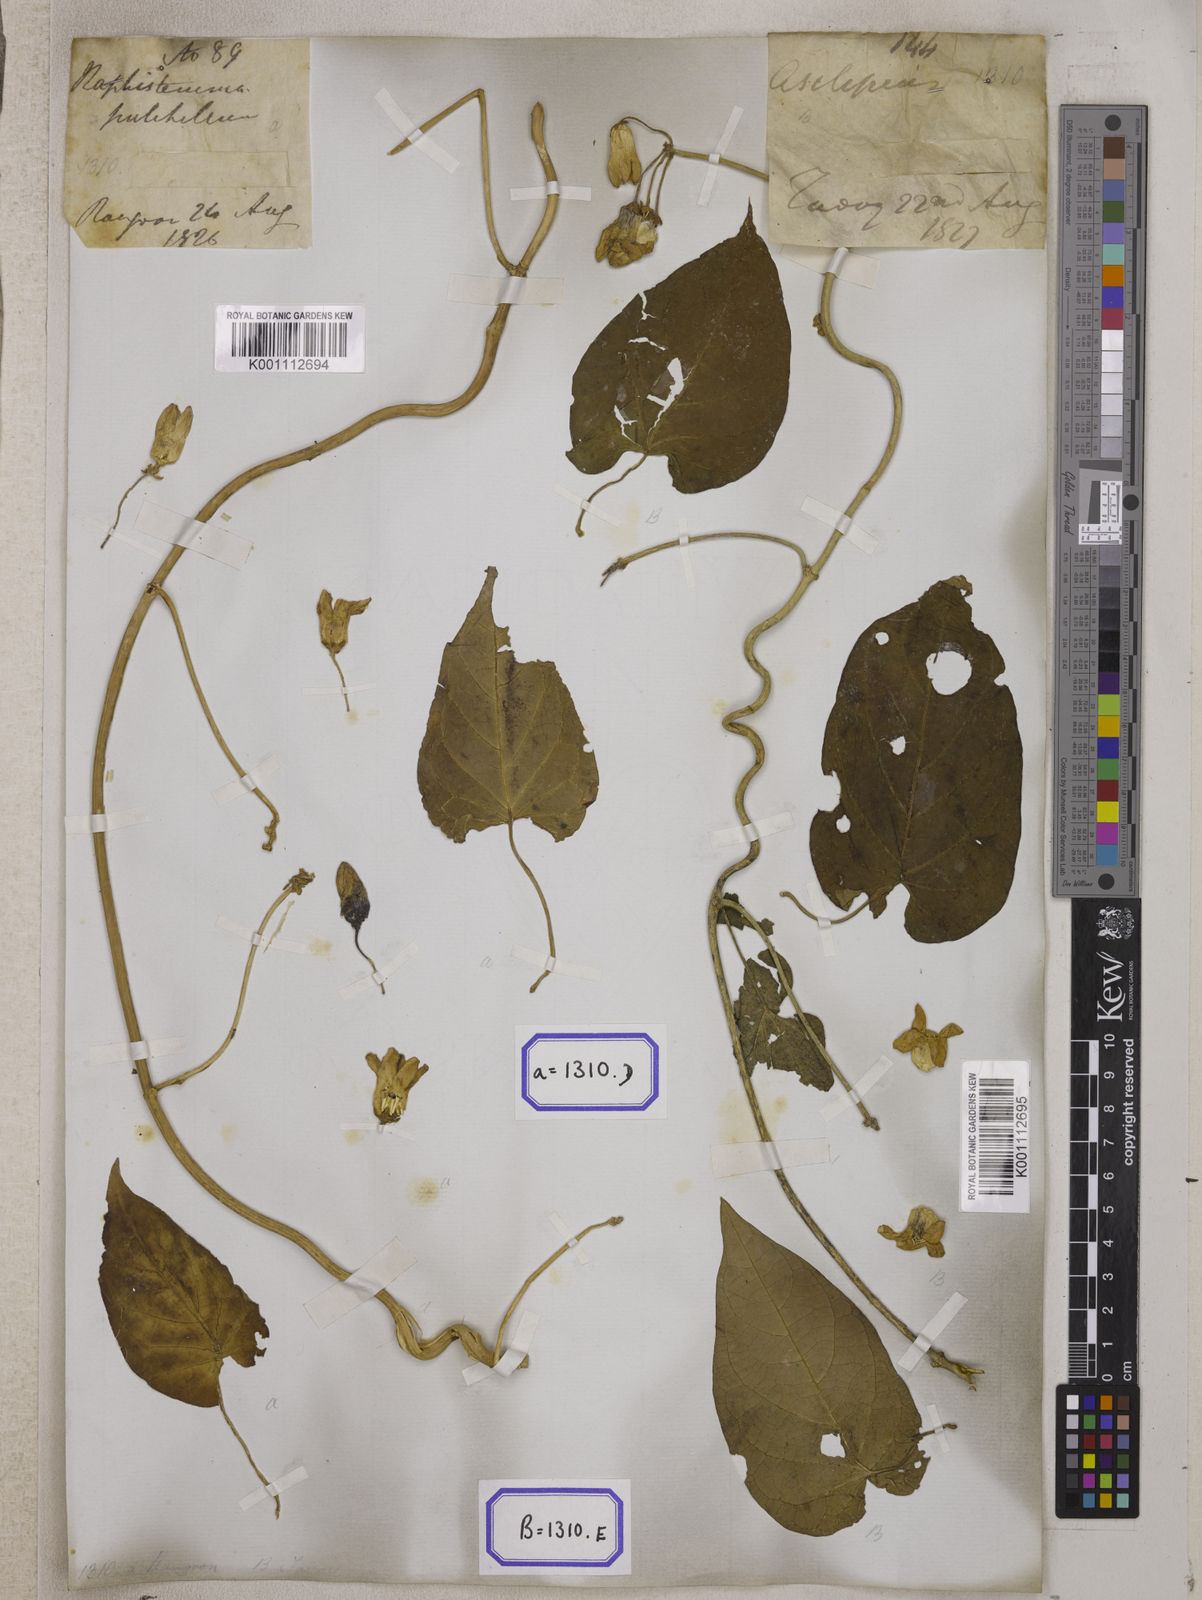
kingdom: Plantae
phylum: Tracheophyta
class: Magnoliopsida
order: Gentianales
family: Apocynaceae
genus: Cynanchum
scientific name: Cynanchum pulchellum
